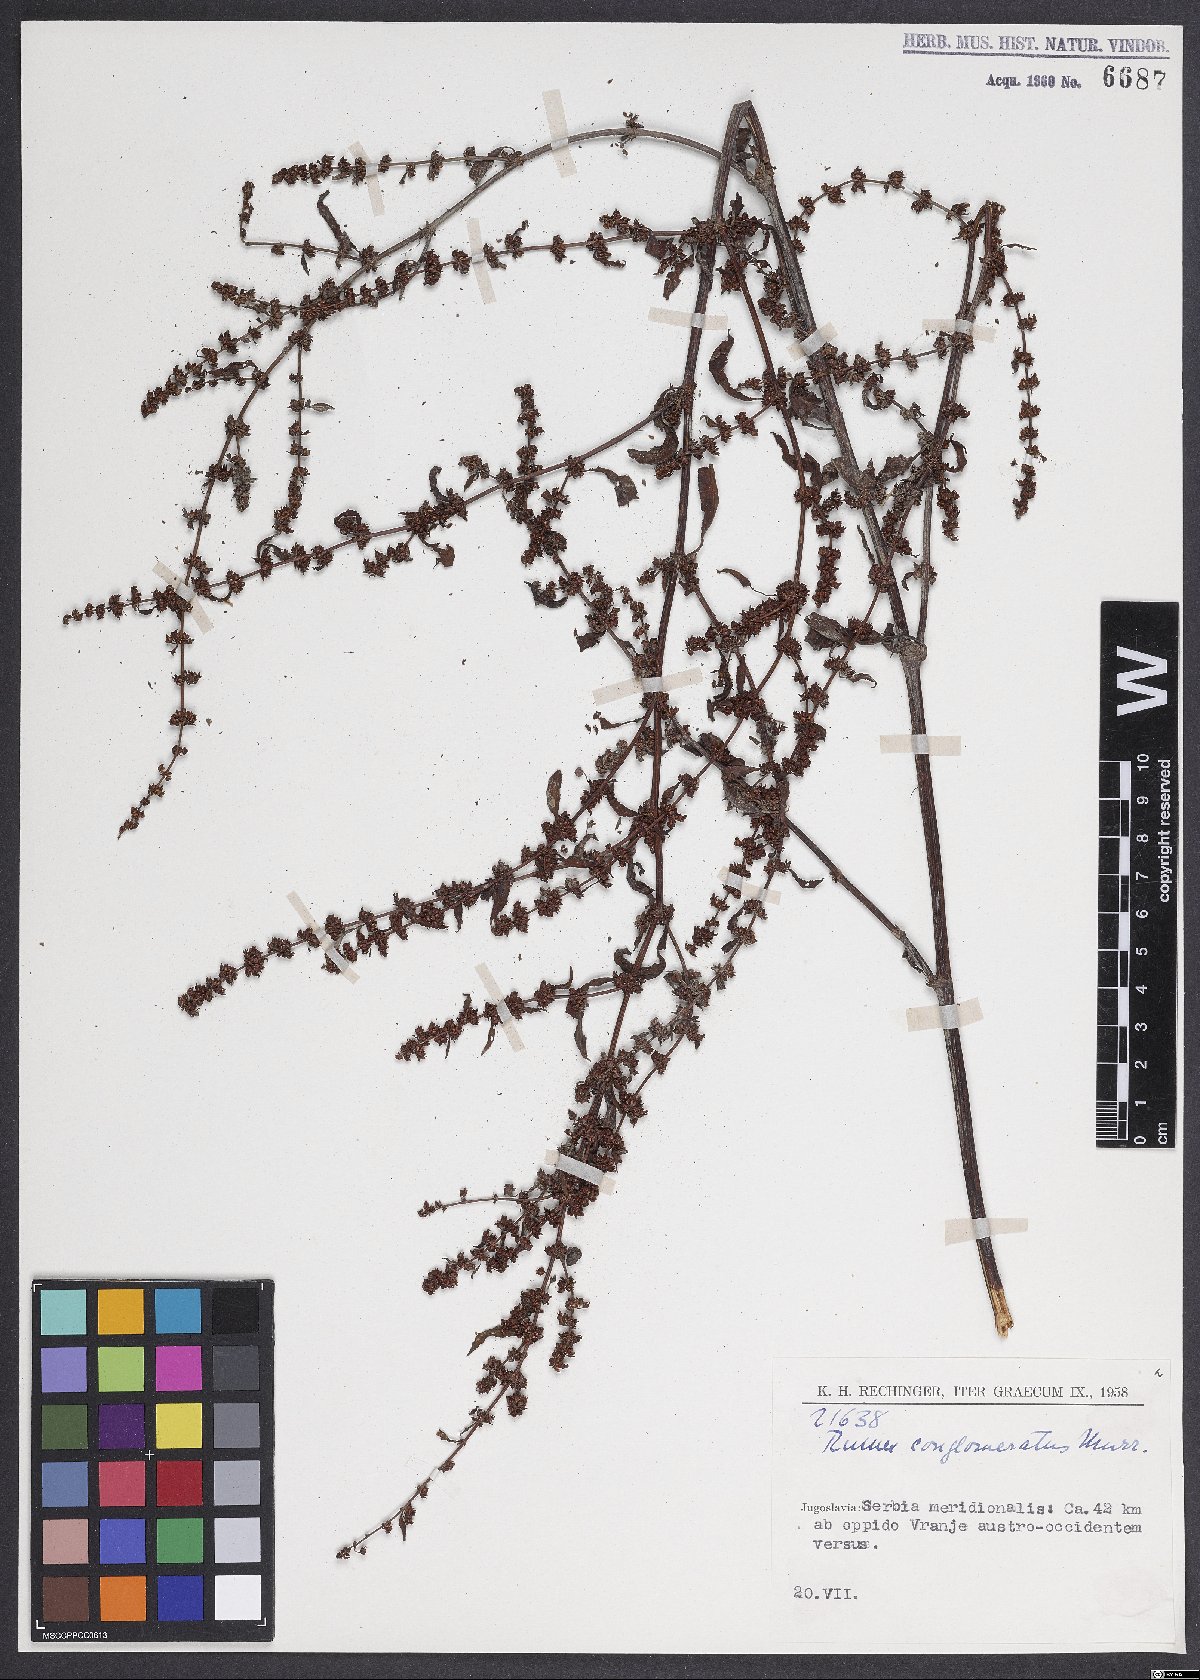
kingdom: Plantae
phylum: Tracheophyta
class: Magnoliopsida
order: Caryophyllales
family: Polygonaceae
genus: Rumex
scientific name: Rumex conglomeratus
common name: Clustered dock
